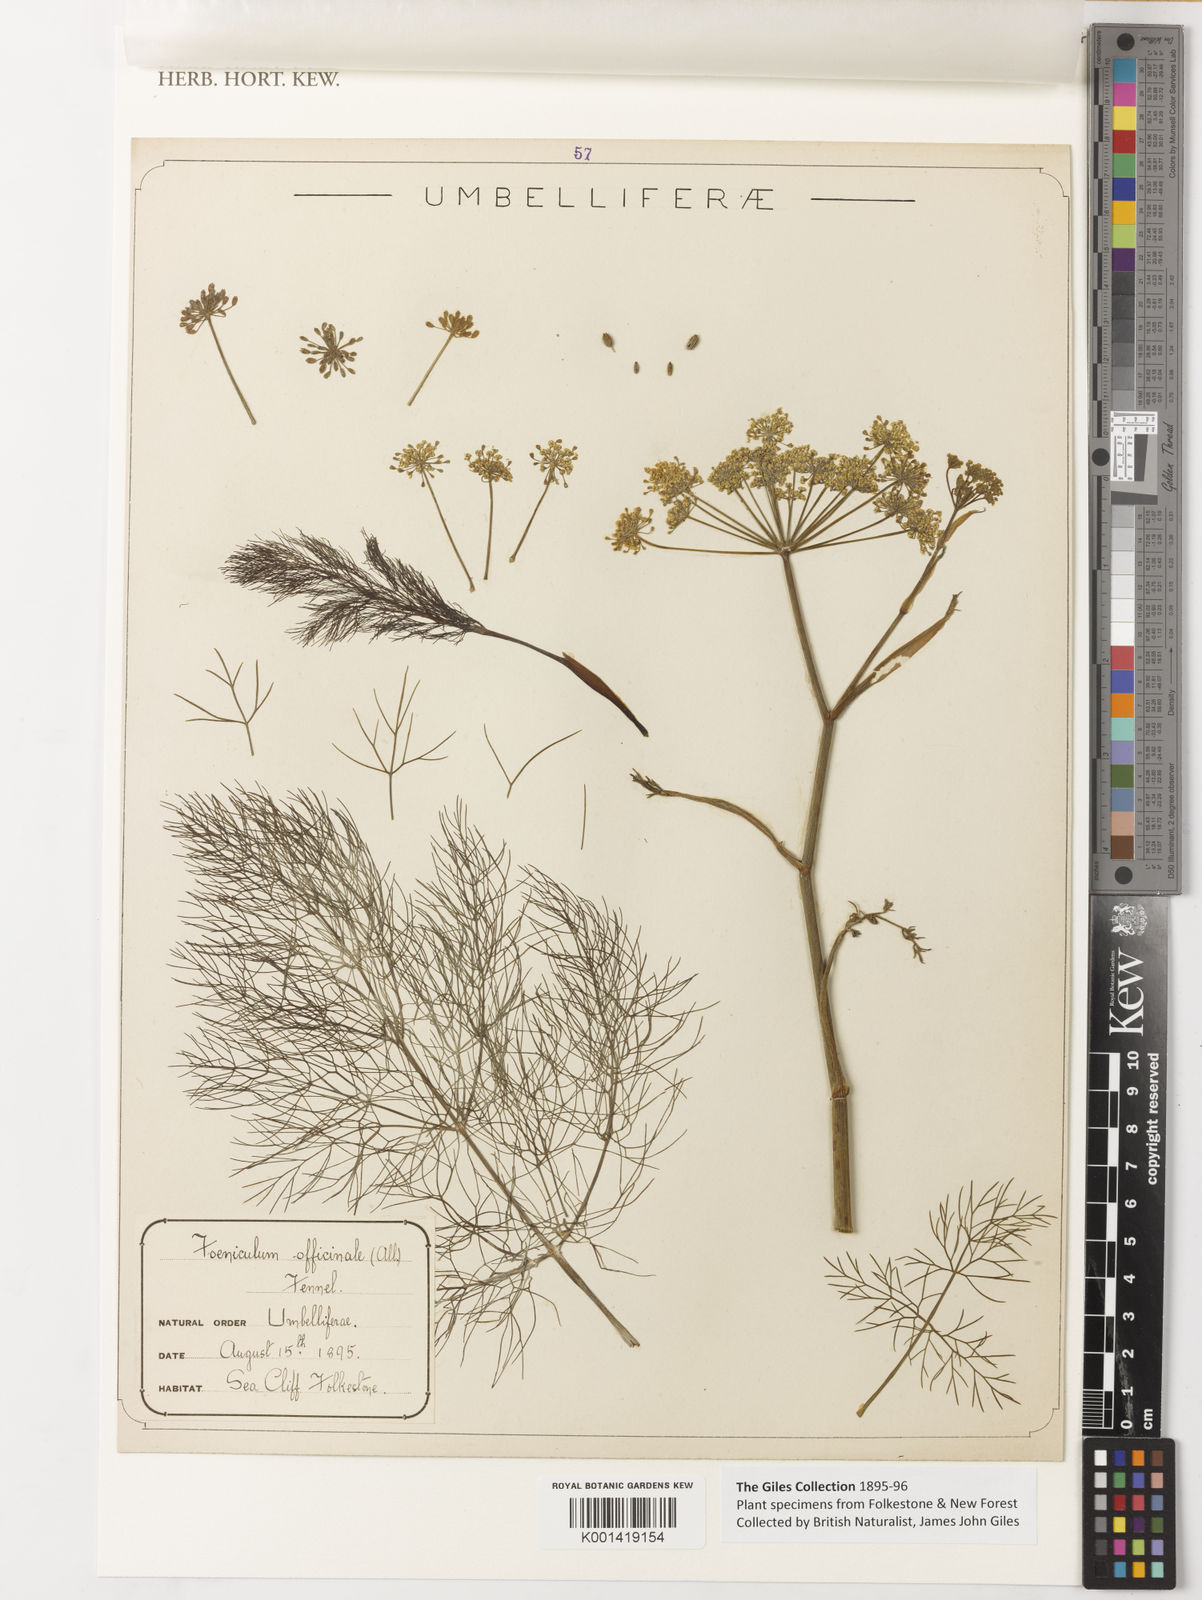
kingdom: Plantae
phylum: Tracheophyta
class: Magnoliopsida
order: Apiales
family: Apiaceae
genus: Foeniculum
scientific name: Foeniculum vulgare
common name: Fennel
